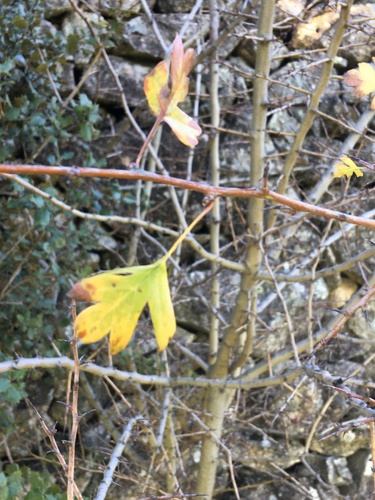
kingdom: Plantae
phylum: Tracheophyta
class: Magnoliopsida
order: Rosales
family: Rosaceae
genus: Crataegus
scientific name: Crataegus monogyna
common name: Hawthorn
